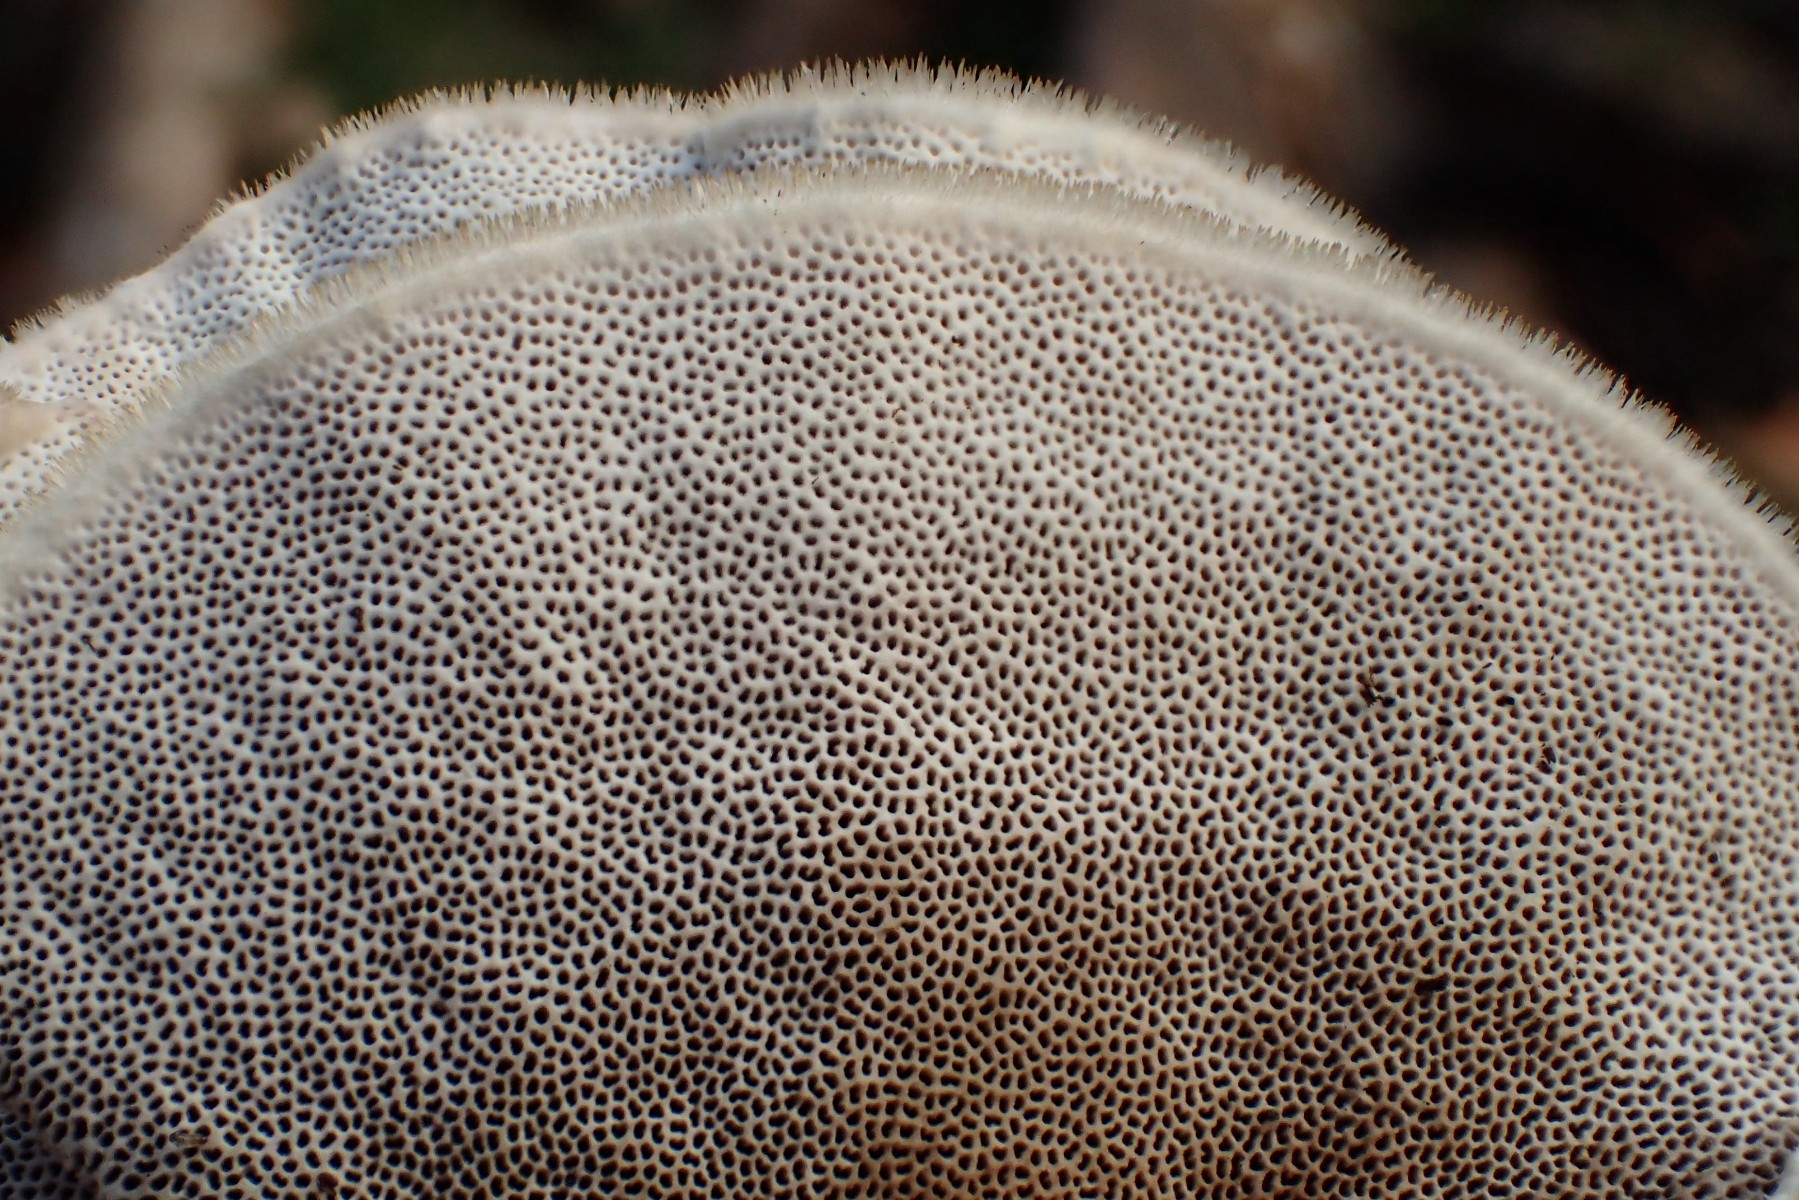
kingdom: Fungi
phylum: Basidiomycota
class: Agaricomycetes
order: Polyporales
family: Polyporaceae
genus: Trametes
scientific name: Trametes hirsuta
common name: håret læderporesvamp
